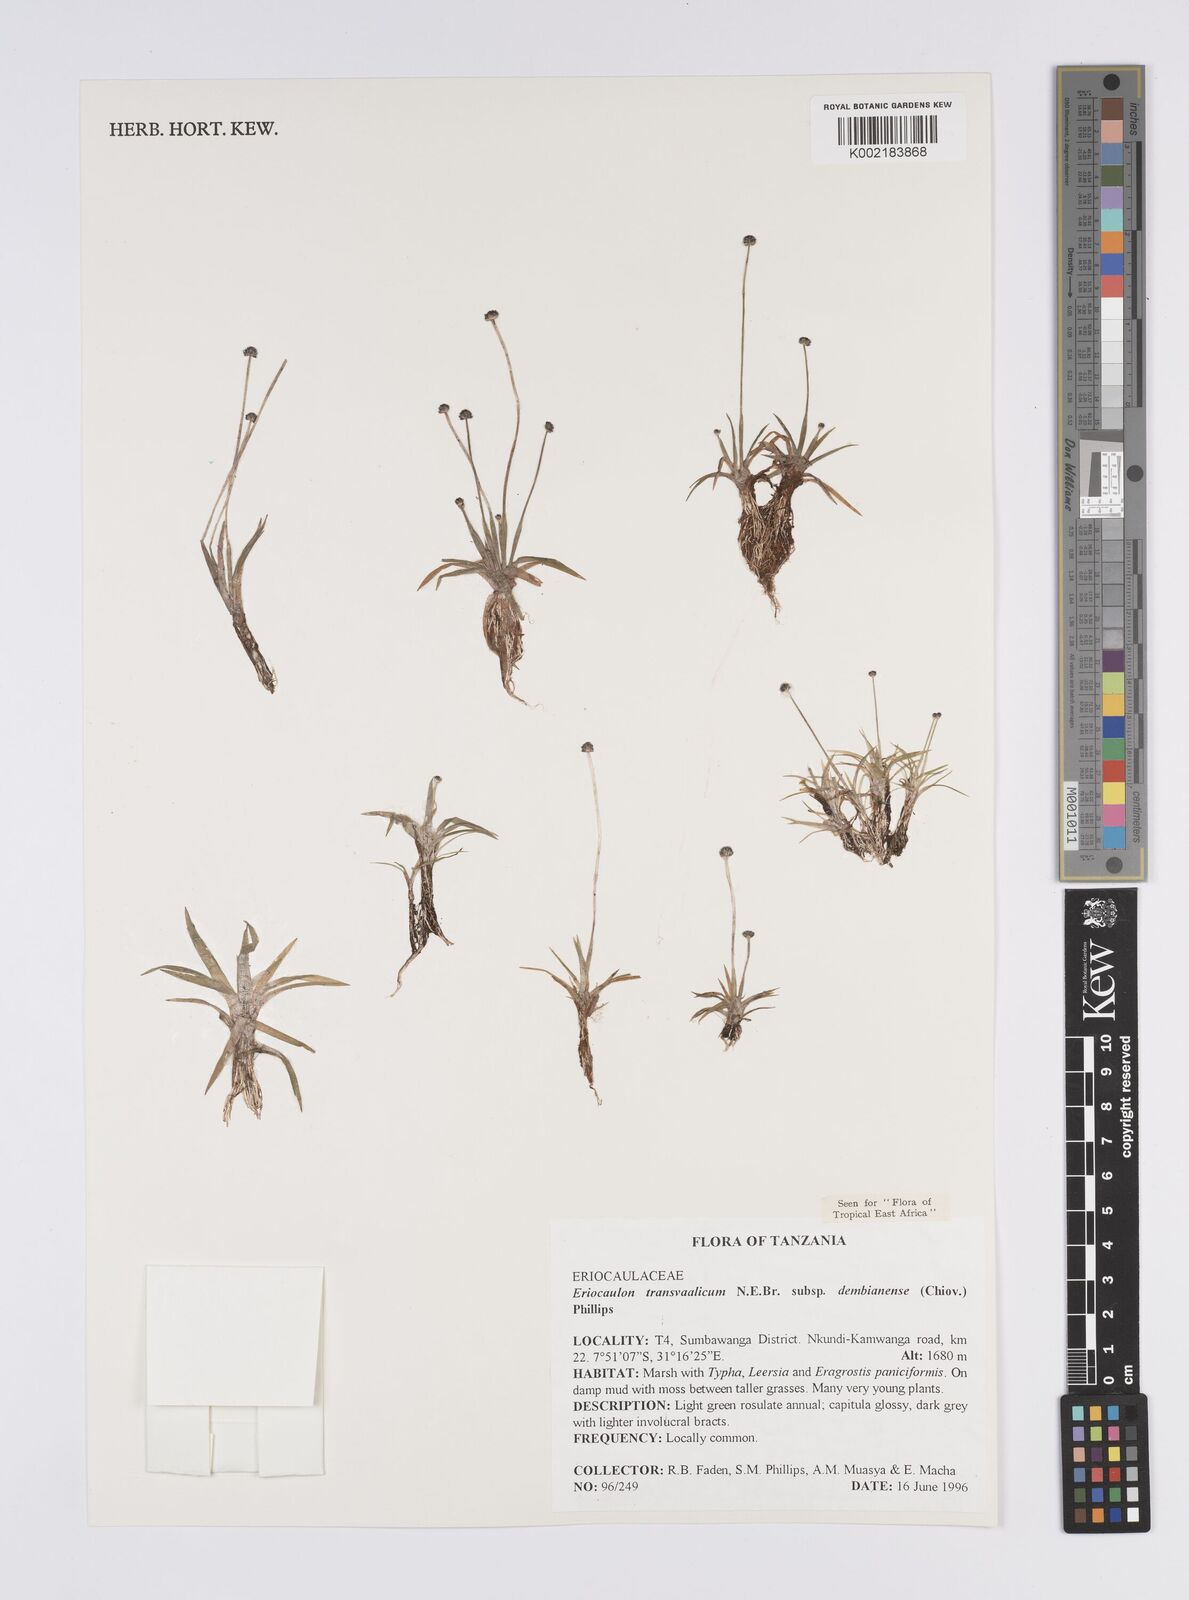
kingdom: Plantae
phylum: Tracheophyta
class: Liliopsida
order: Poales
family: Eriocaulaceae
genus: Eriocaulon
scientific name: Eriocaulon transvaalicum
